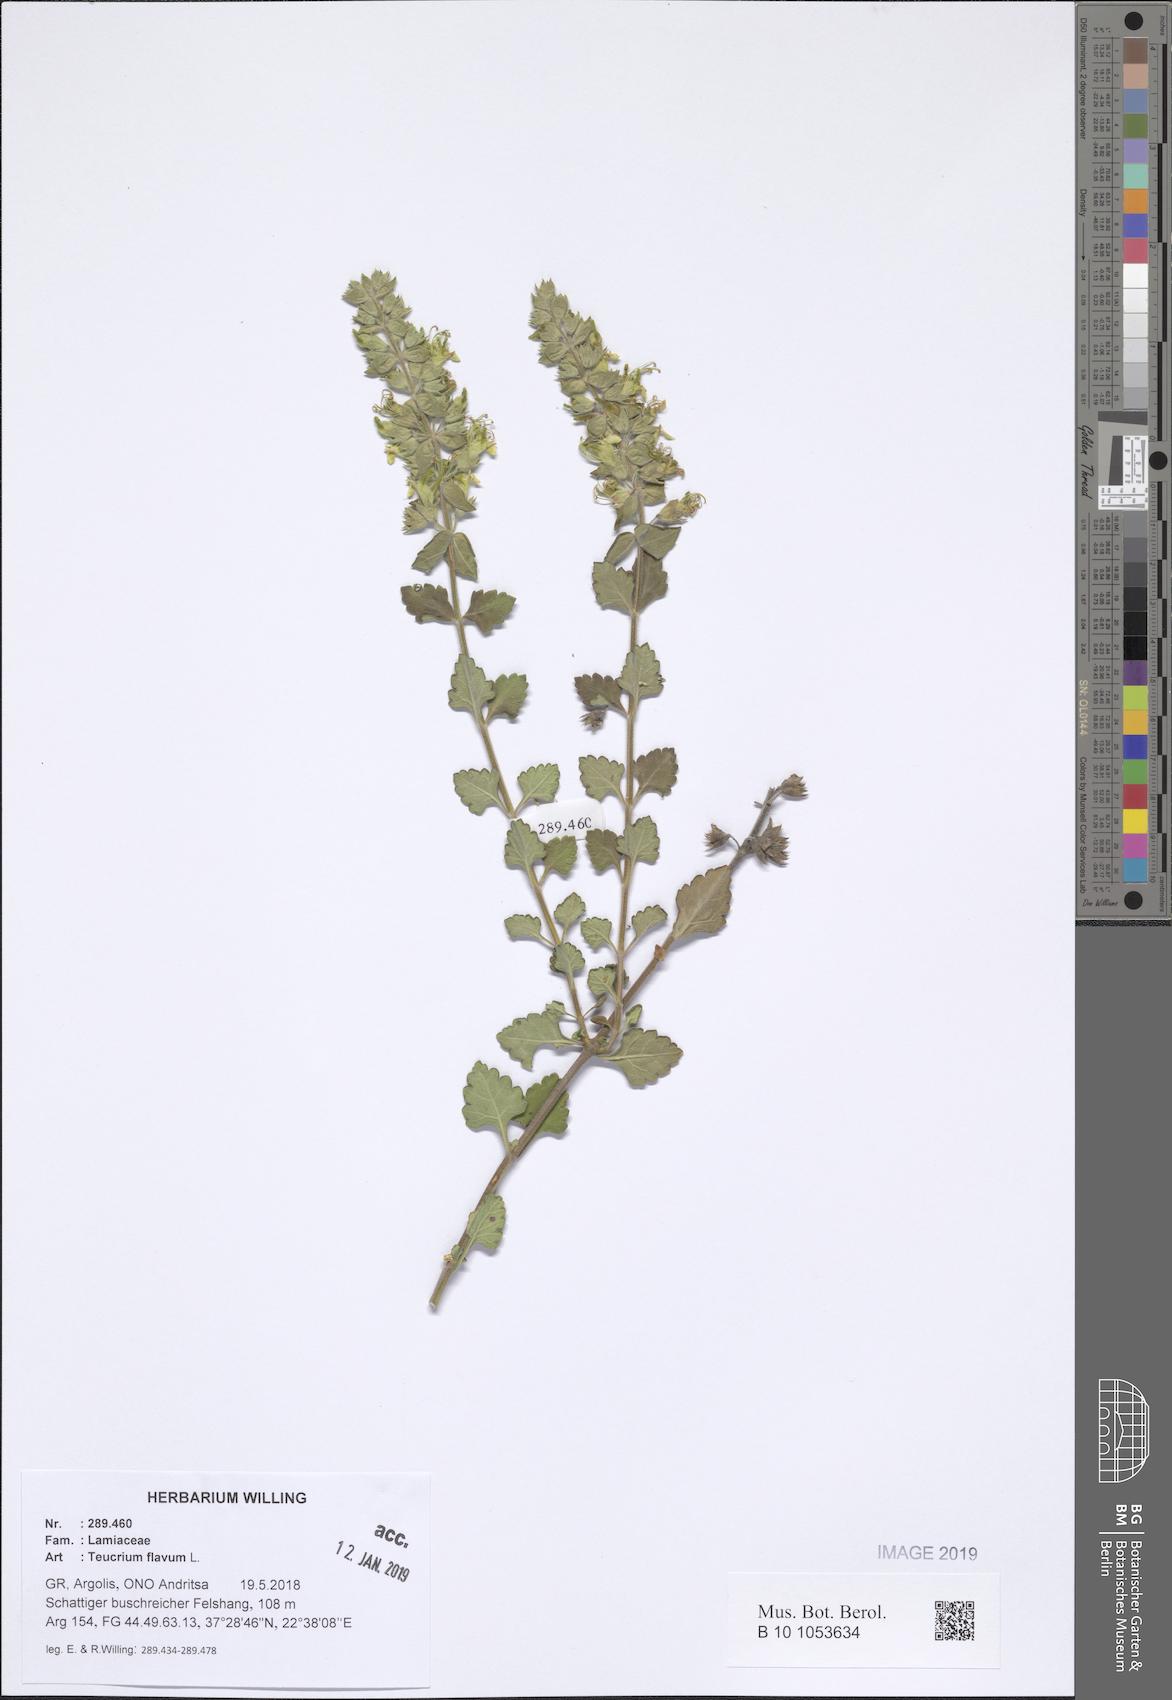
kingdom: Plantae
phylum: Tracheophyta
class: Magnoliopsida
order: Lamiales
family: Lamiaceae
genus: Teucrium
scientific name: Teucrium flavum
